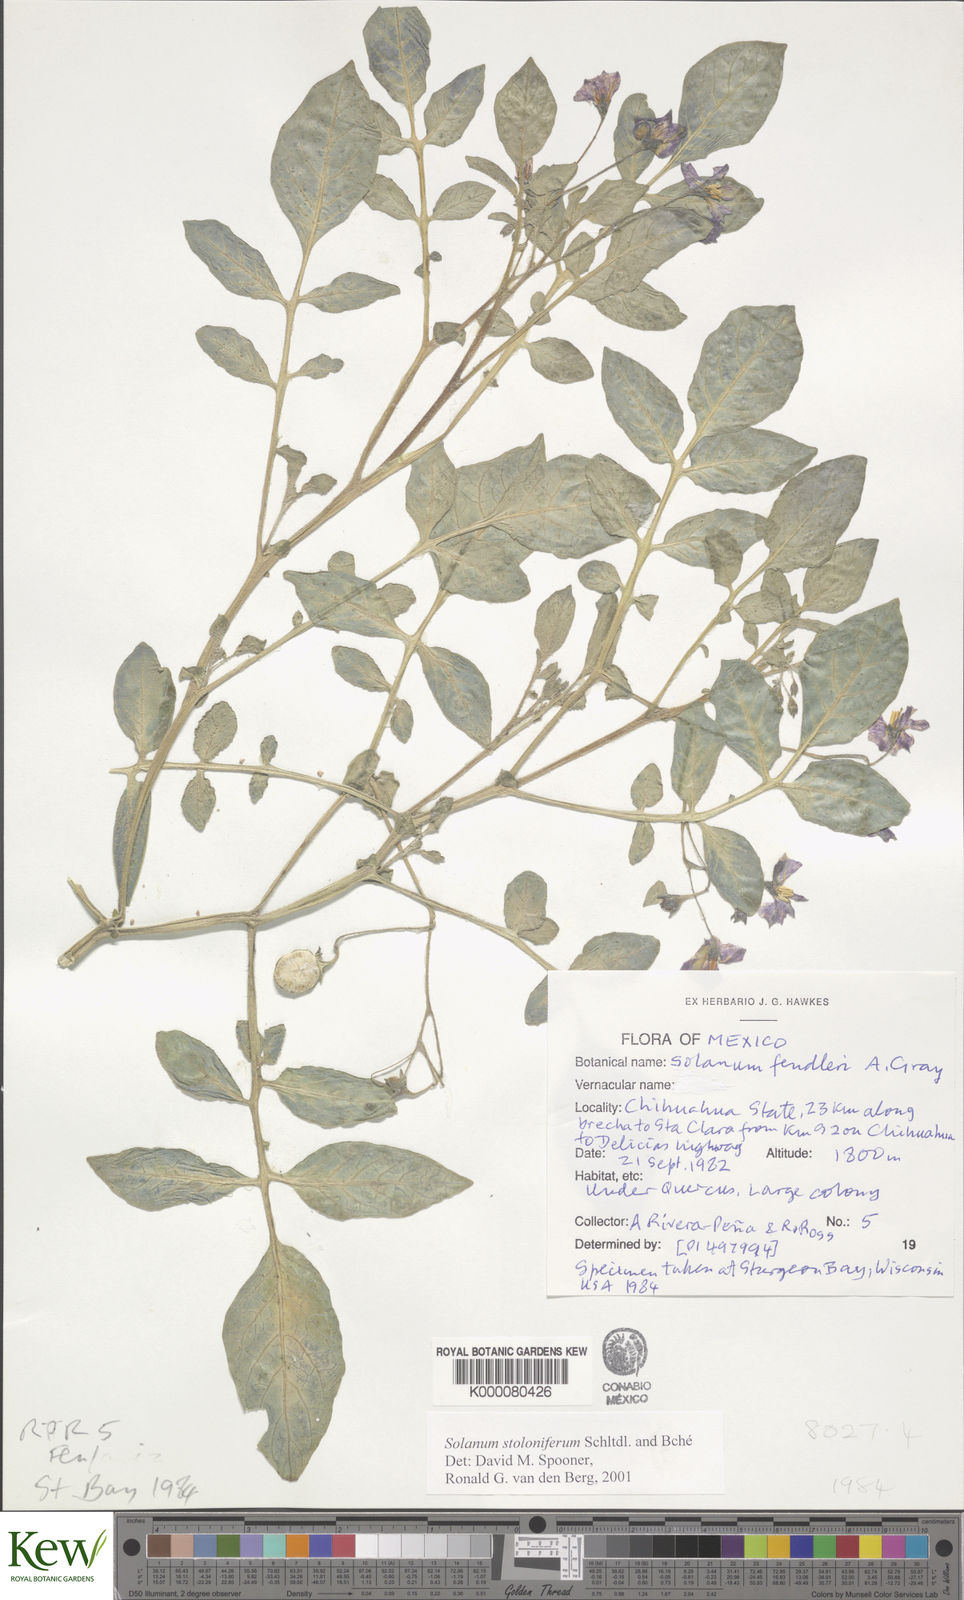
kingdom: Plantae
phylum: Tracheophyta
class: Magnoliopsida
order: Solanales
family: Solanaceae
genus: Solanum
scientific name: Solanum stoloniferum
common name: Fendler's nighshade
